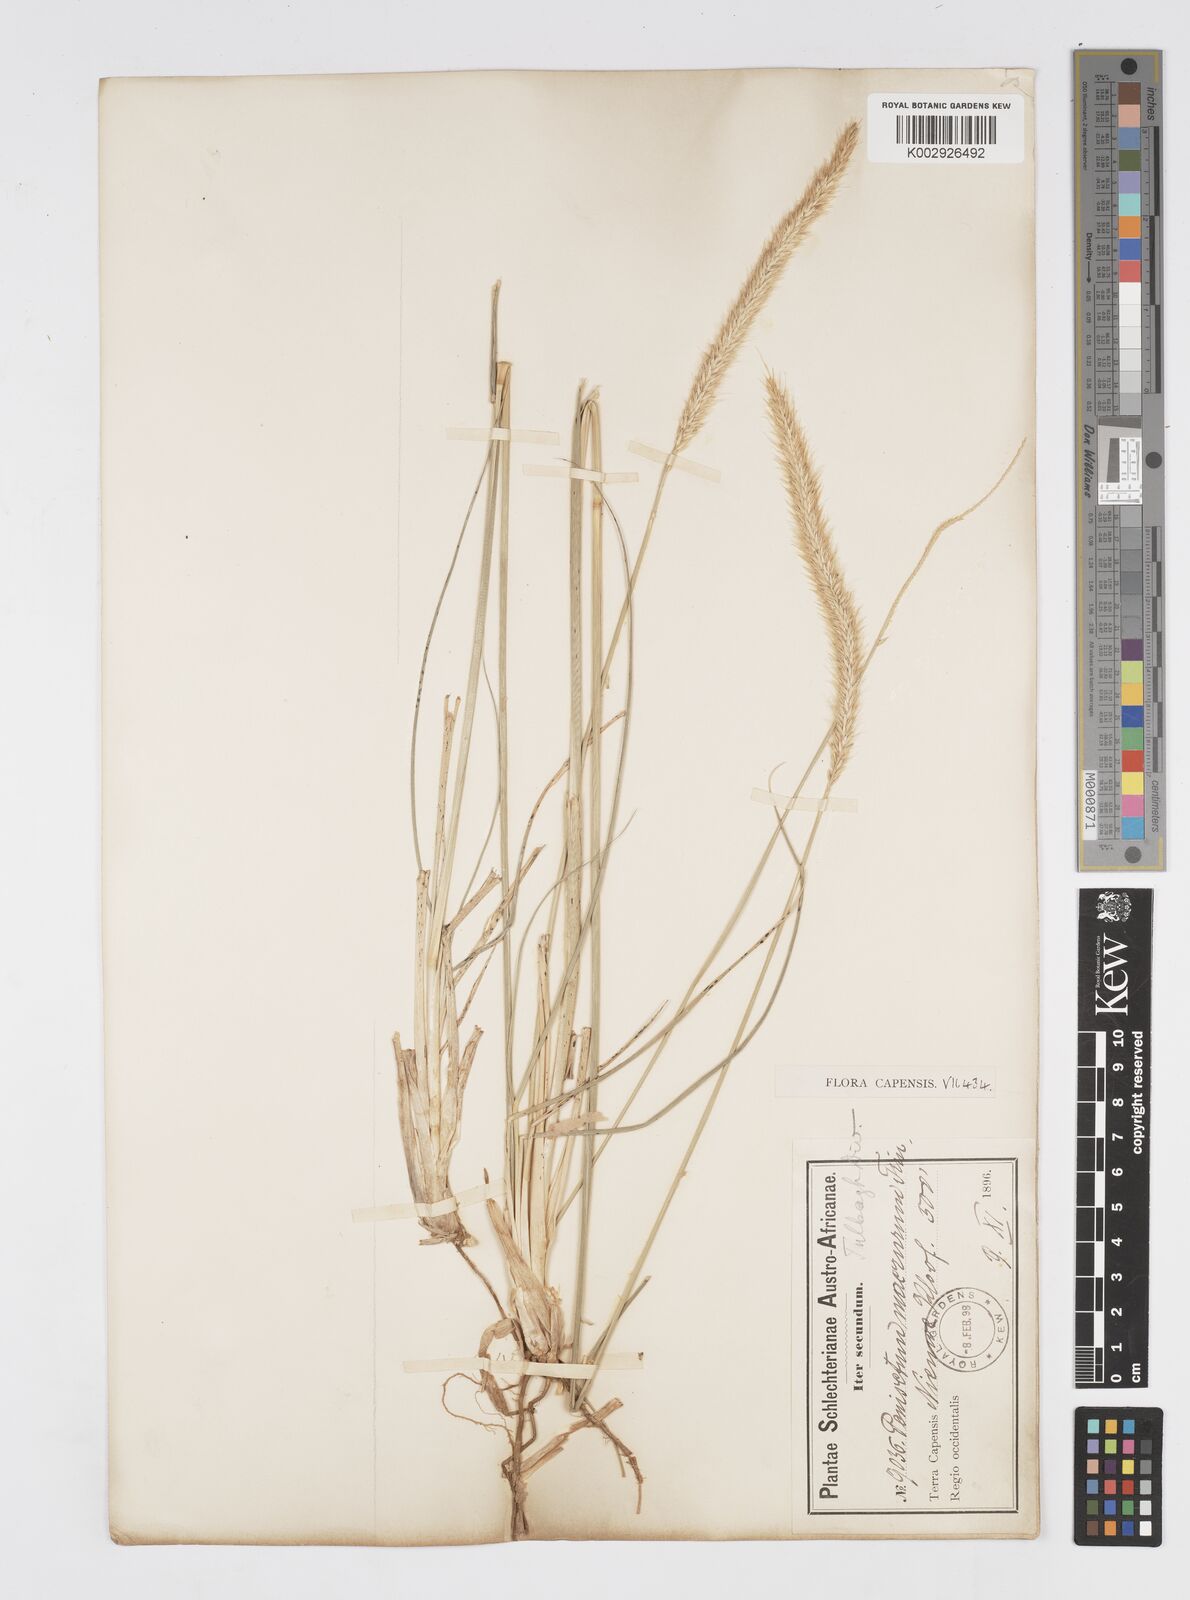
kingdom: Plantae
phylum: Tracheophyta
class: Liliopsida
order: Poales
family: Poaceae
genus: Cenchrus
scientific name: Cenchrus caudatus
